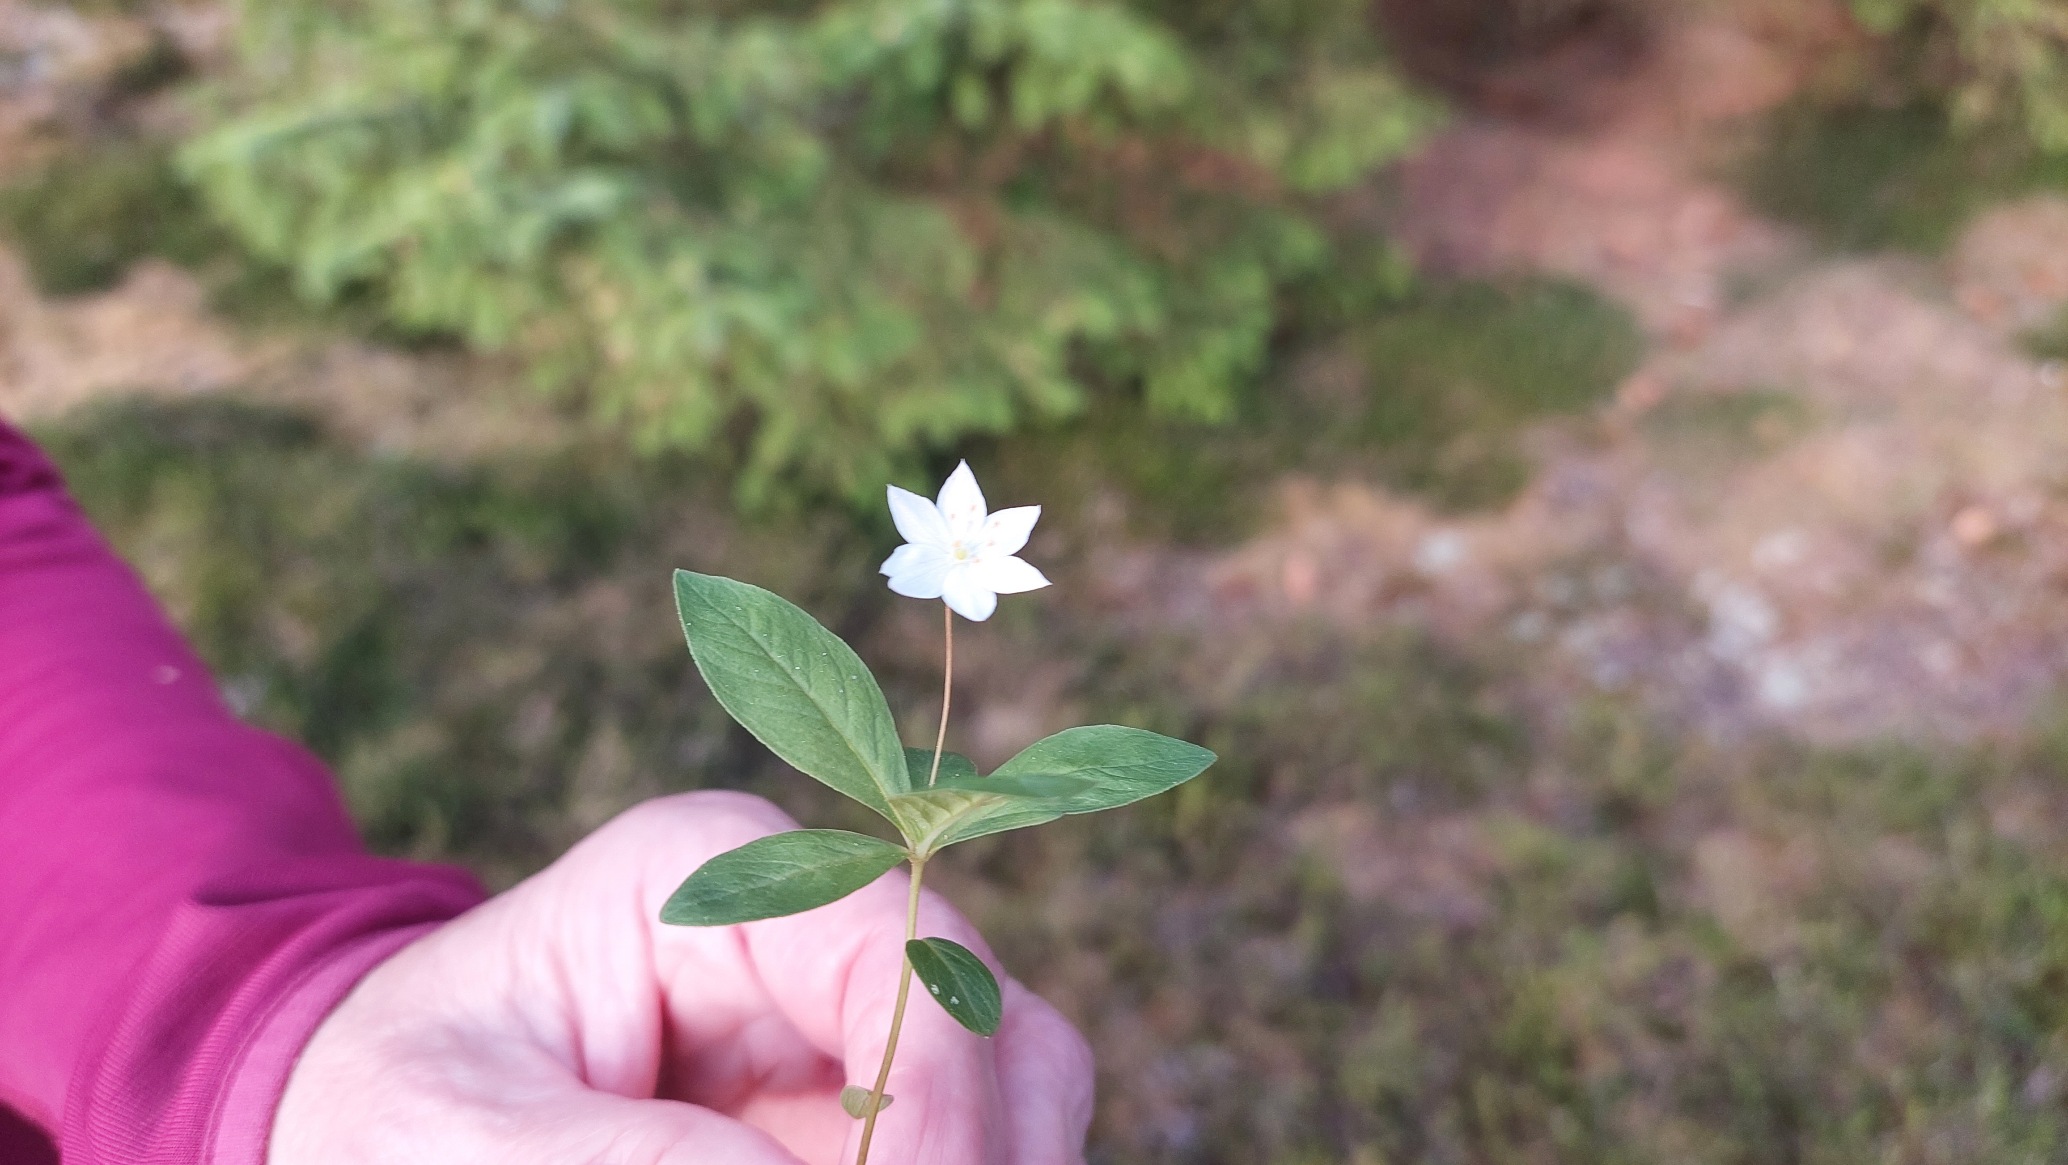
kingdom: Plantae
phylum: Tracheophyta
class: Magnoliopsida
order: Ericales
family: Primulaceae
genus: Lysimachia
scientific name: Lysimachia europaea
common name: Skovstjerne
